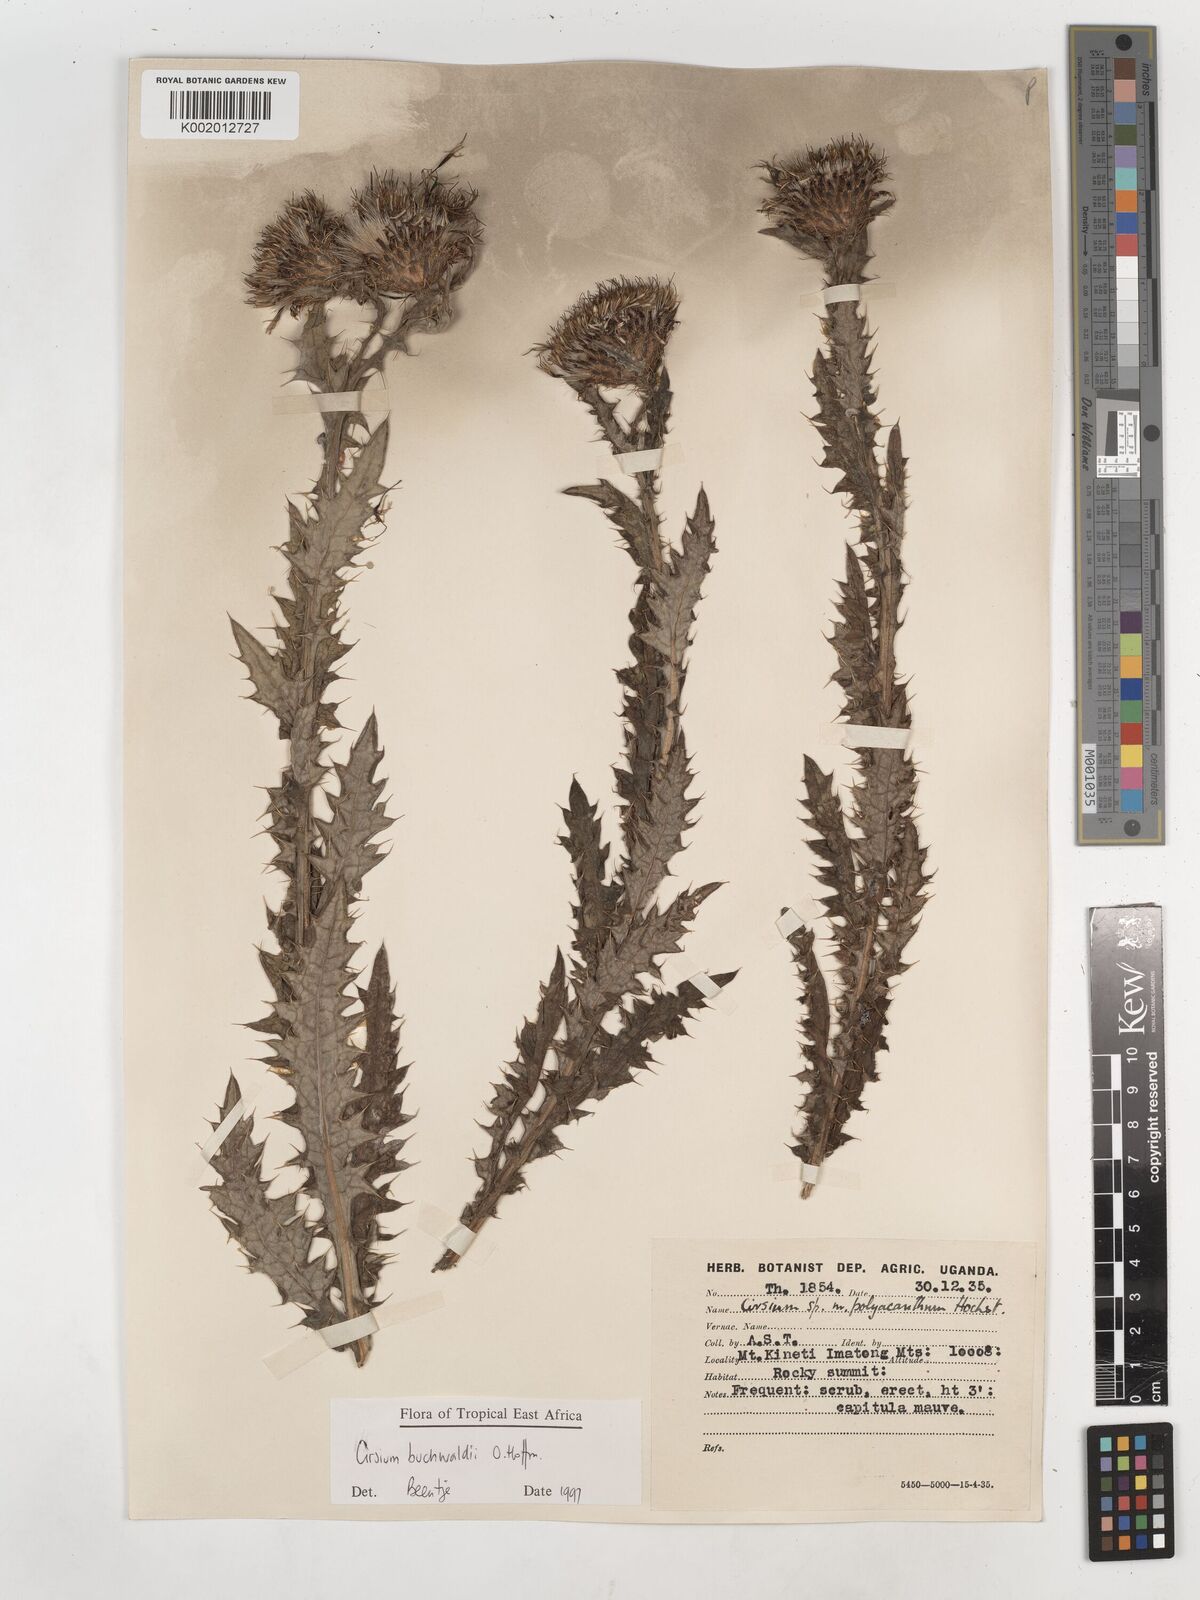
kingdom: Plantae
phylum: Tracheophyta
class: Magnoliopsida
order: Asterales
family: Asteraceae
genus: Cirsium
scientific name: Cirsium buchwaldii
